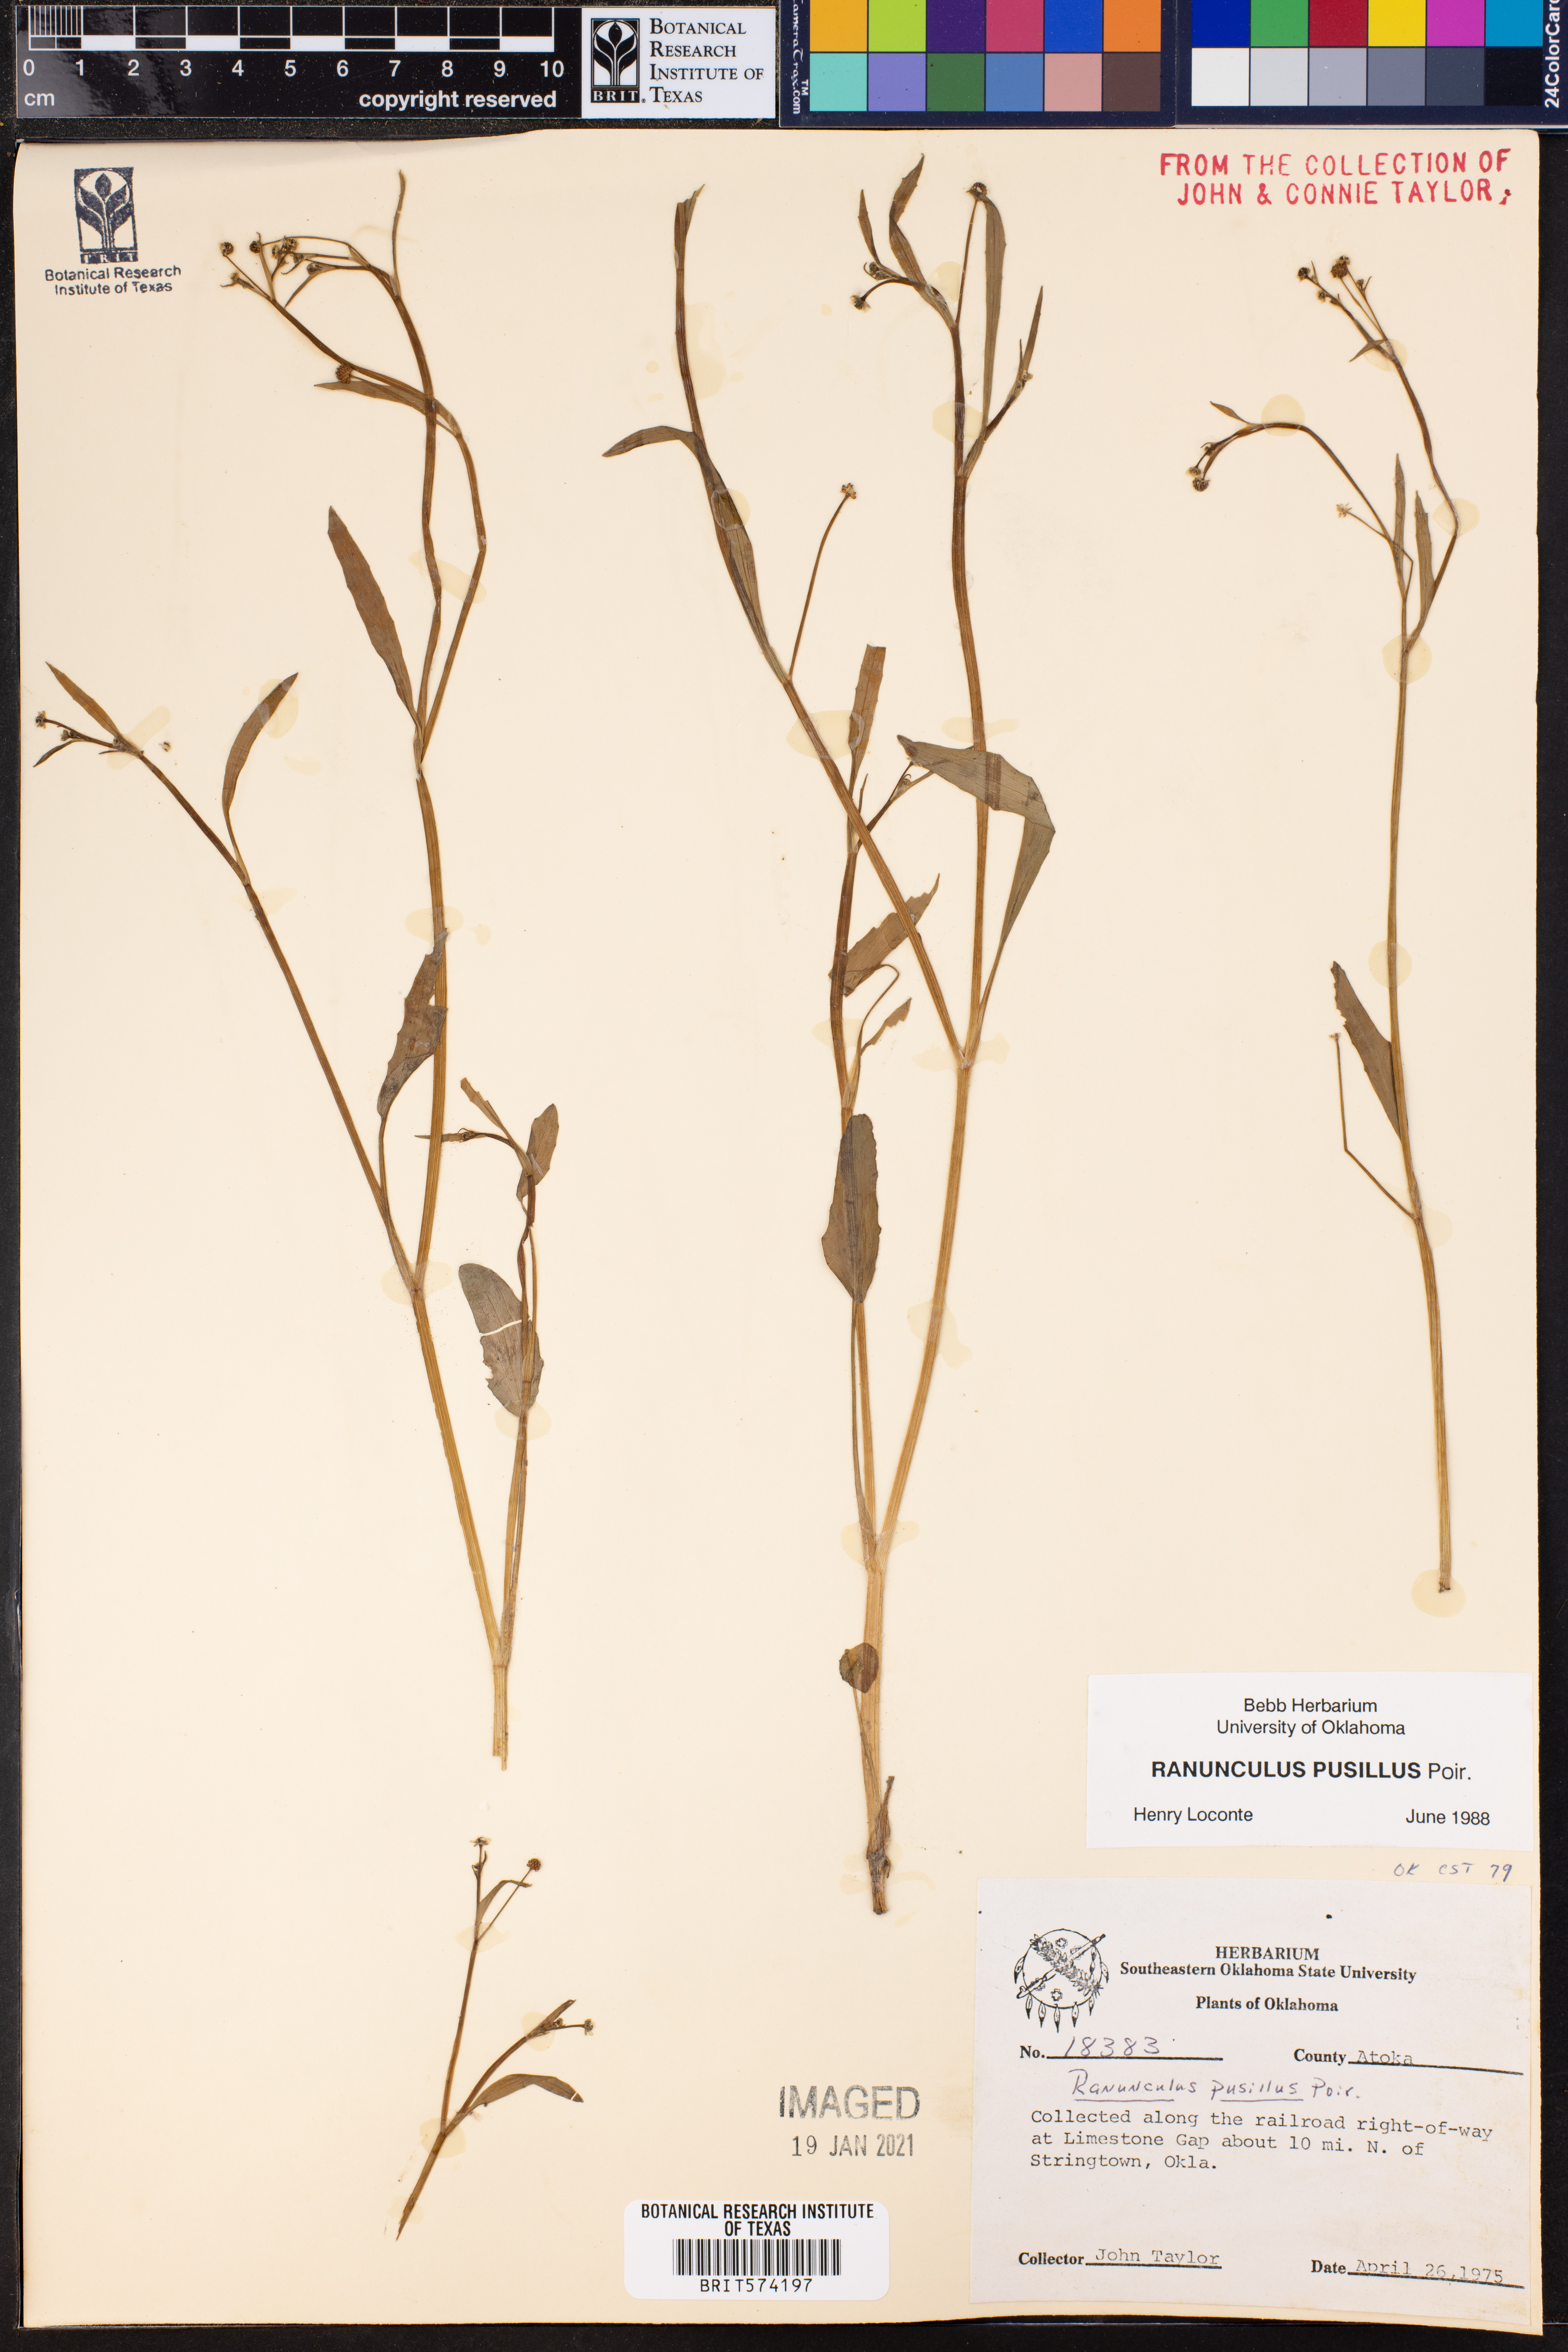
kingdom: Plantae
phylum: Tracheophyta
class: Magnoliopsida
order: Ranunculales
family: Ranunculaceae
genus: Ranunculus
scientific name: Ranunculus pusillus
